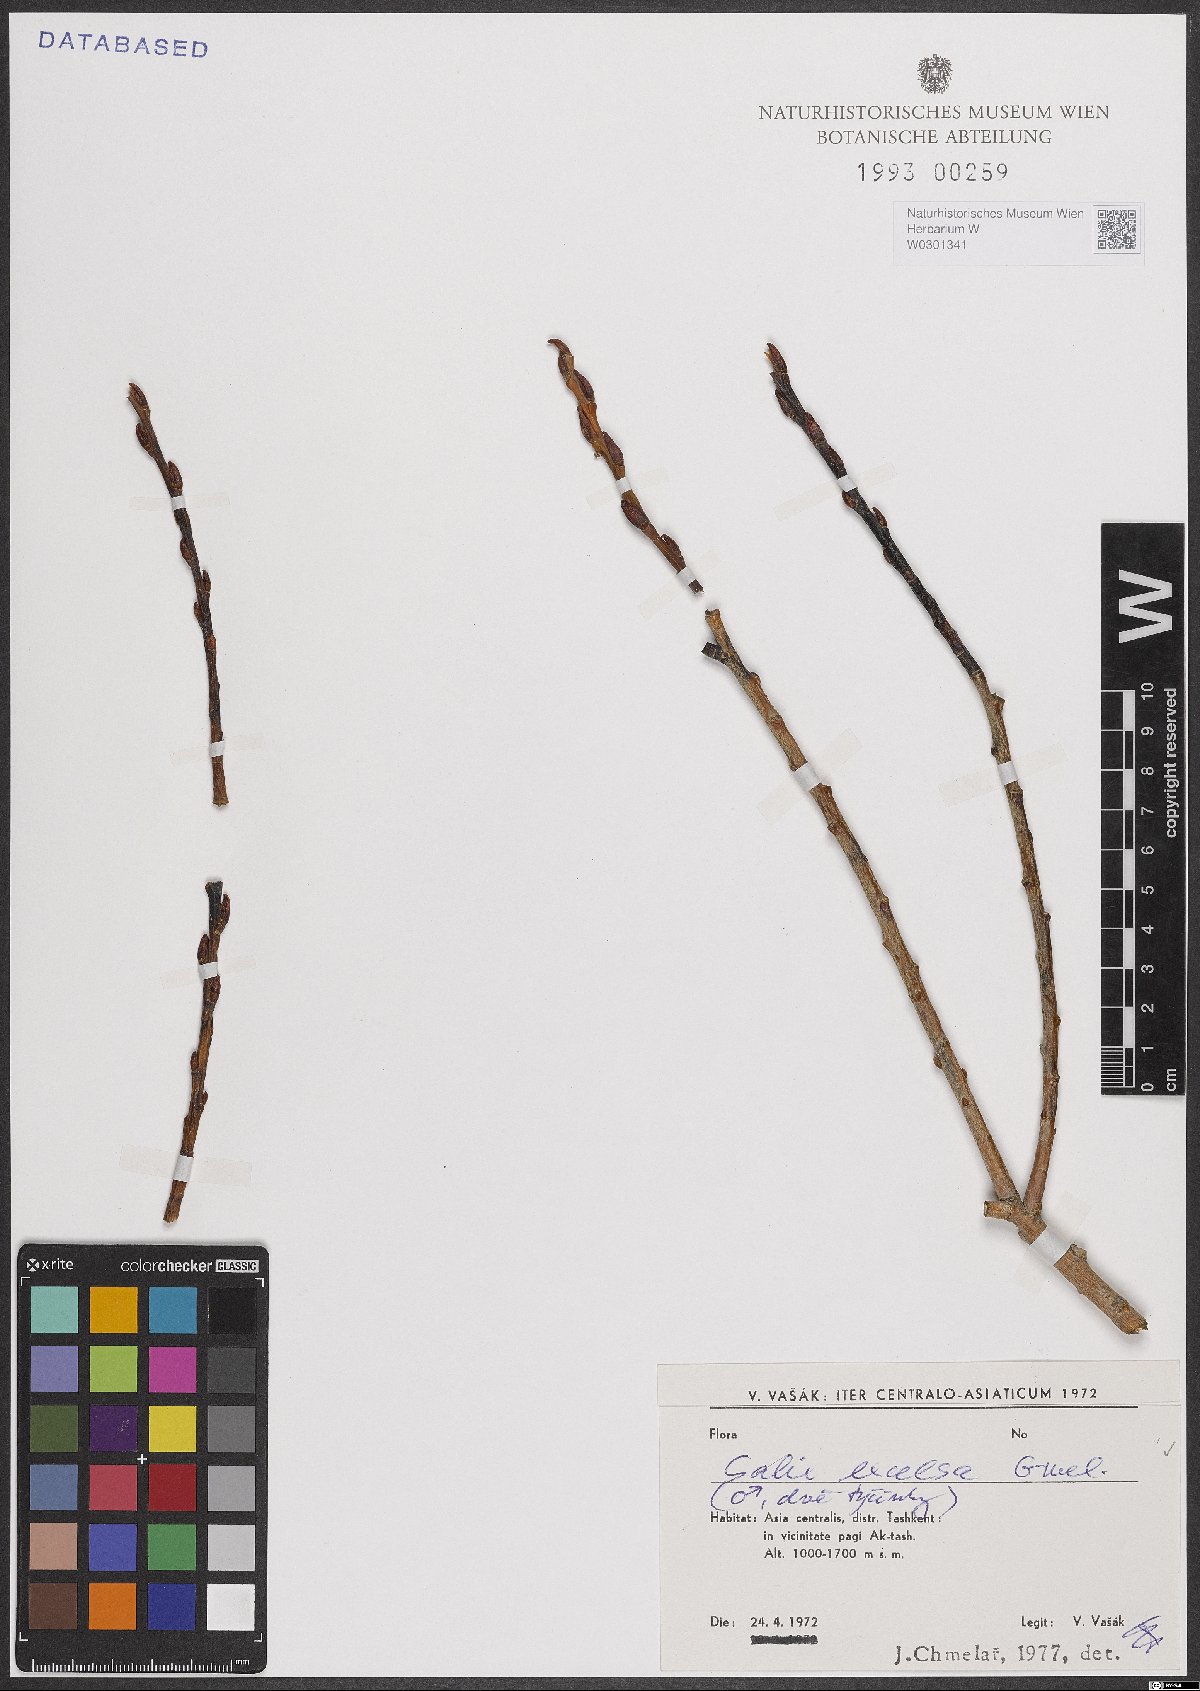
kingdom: Plantae
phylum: Tracheophyta
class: Magnoliopsida
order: Malpighiales
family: Salicaceae
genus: Salix
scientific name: Salix excelsa
